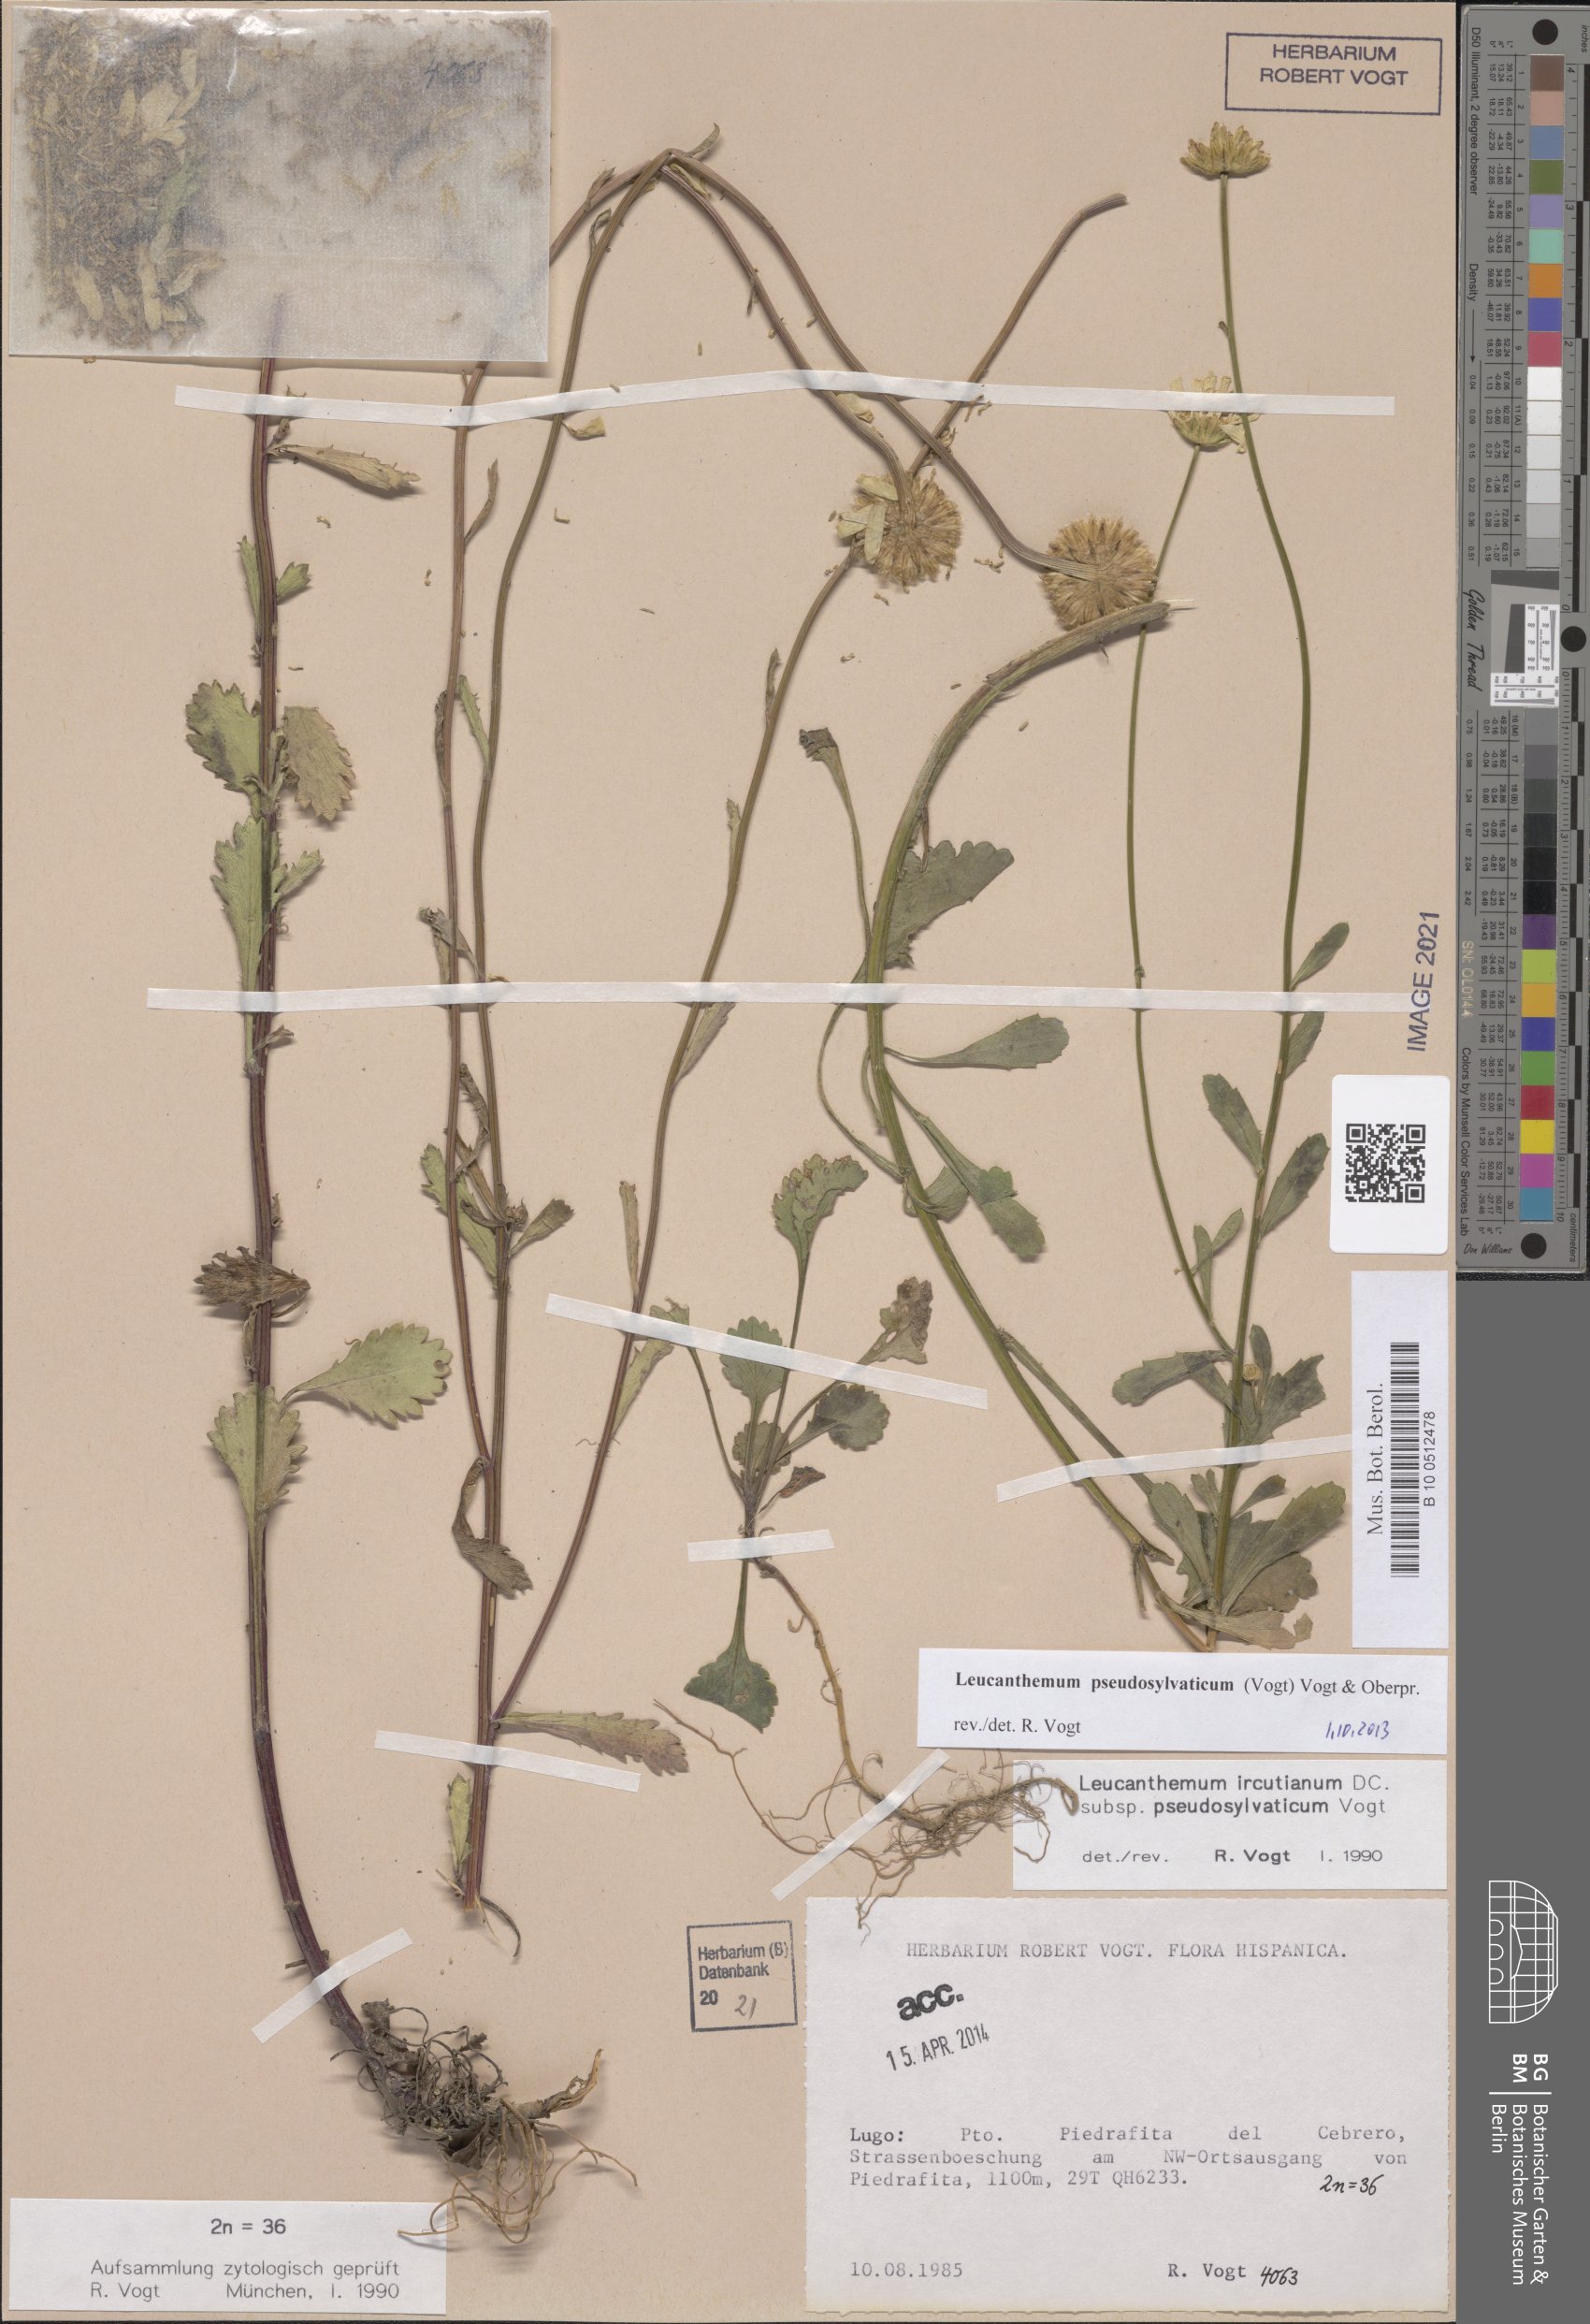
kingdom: Plantae
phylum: Tracheophyta
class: Magnoliopsida
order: Asterales
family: Asteraceae
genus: Leucanthemum
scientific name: Leucanthemum pseudosylvaticum
